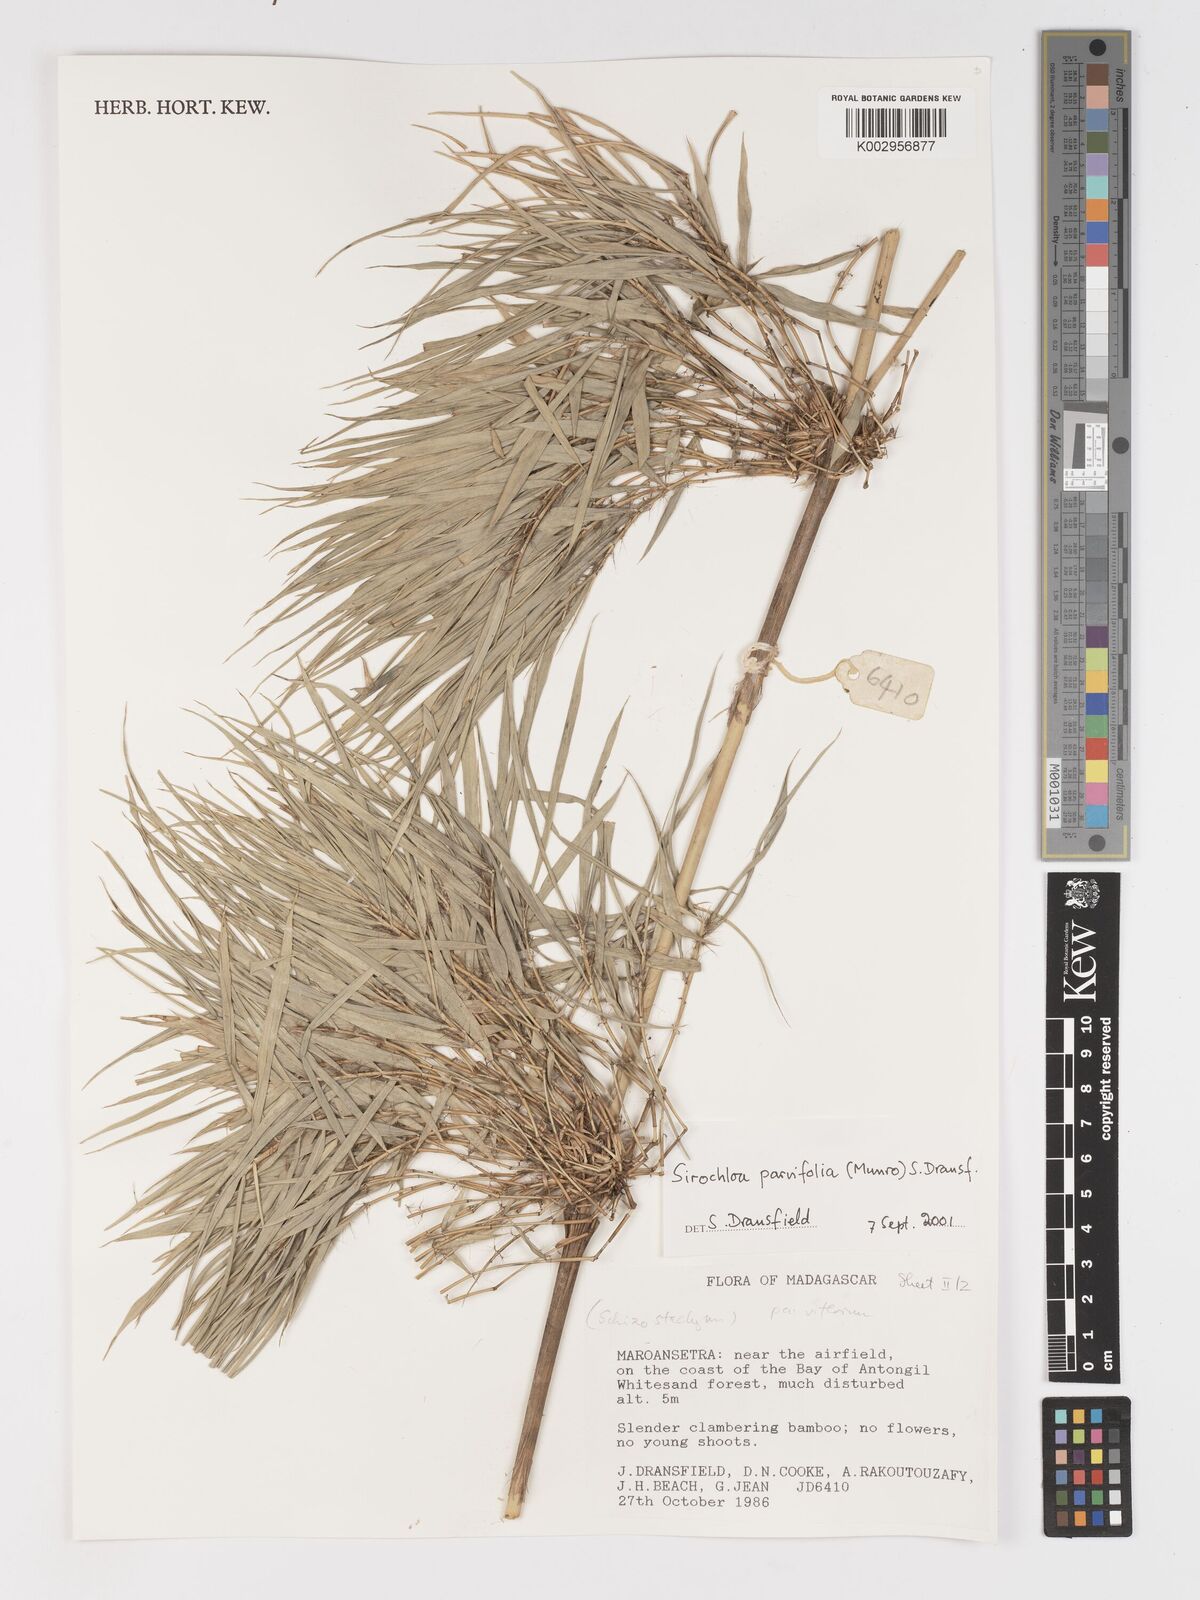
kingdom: Plantae
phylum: Tracheophyta
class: Liliopsida
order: Poales
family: Poaceae
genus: Sirochloa
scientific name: Sirochloa parvifolia
